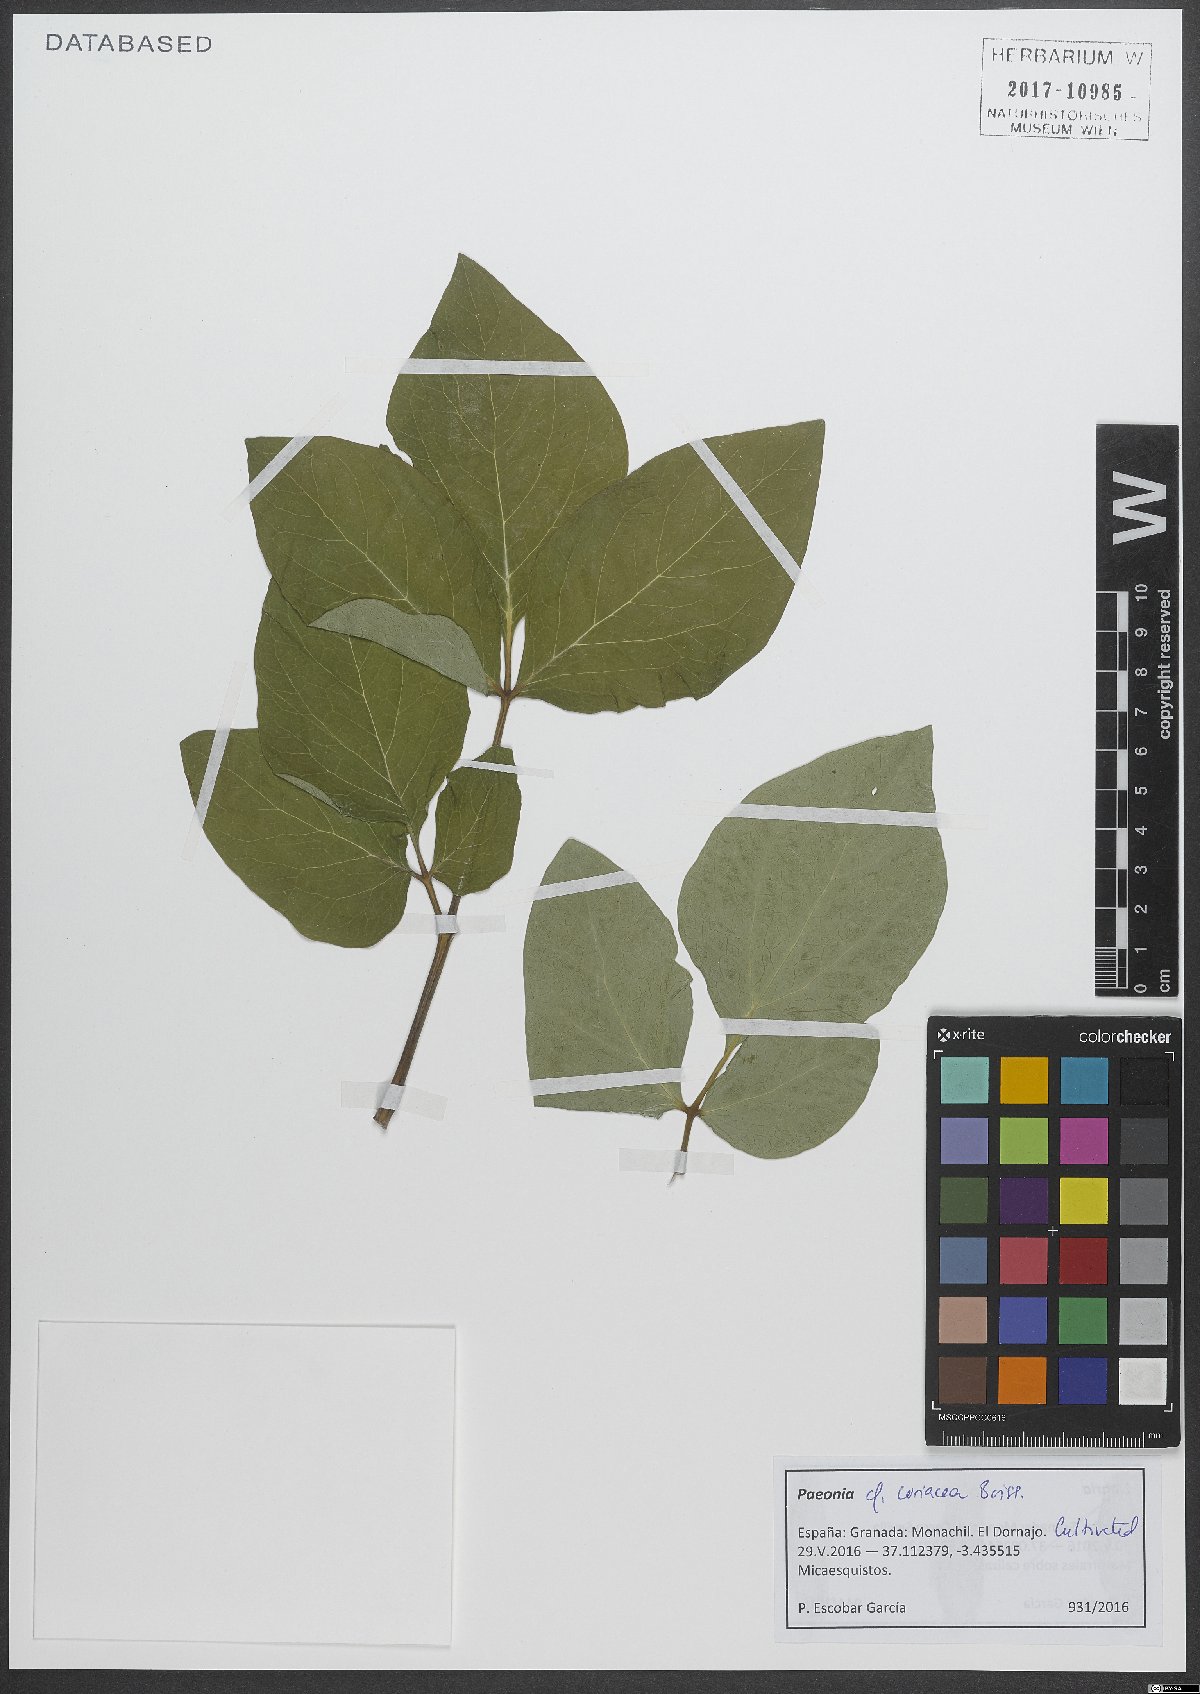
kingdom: Plantae
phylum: Tracheophyta
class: Magnoliopsida
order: Saxifragales
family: Paeoniaceae
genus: Paeonia
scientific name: Paeonia coriacea
